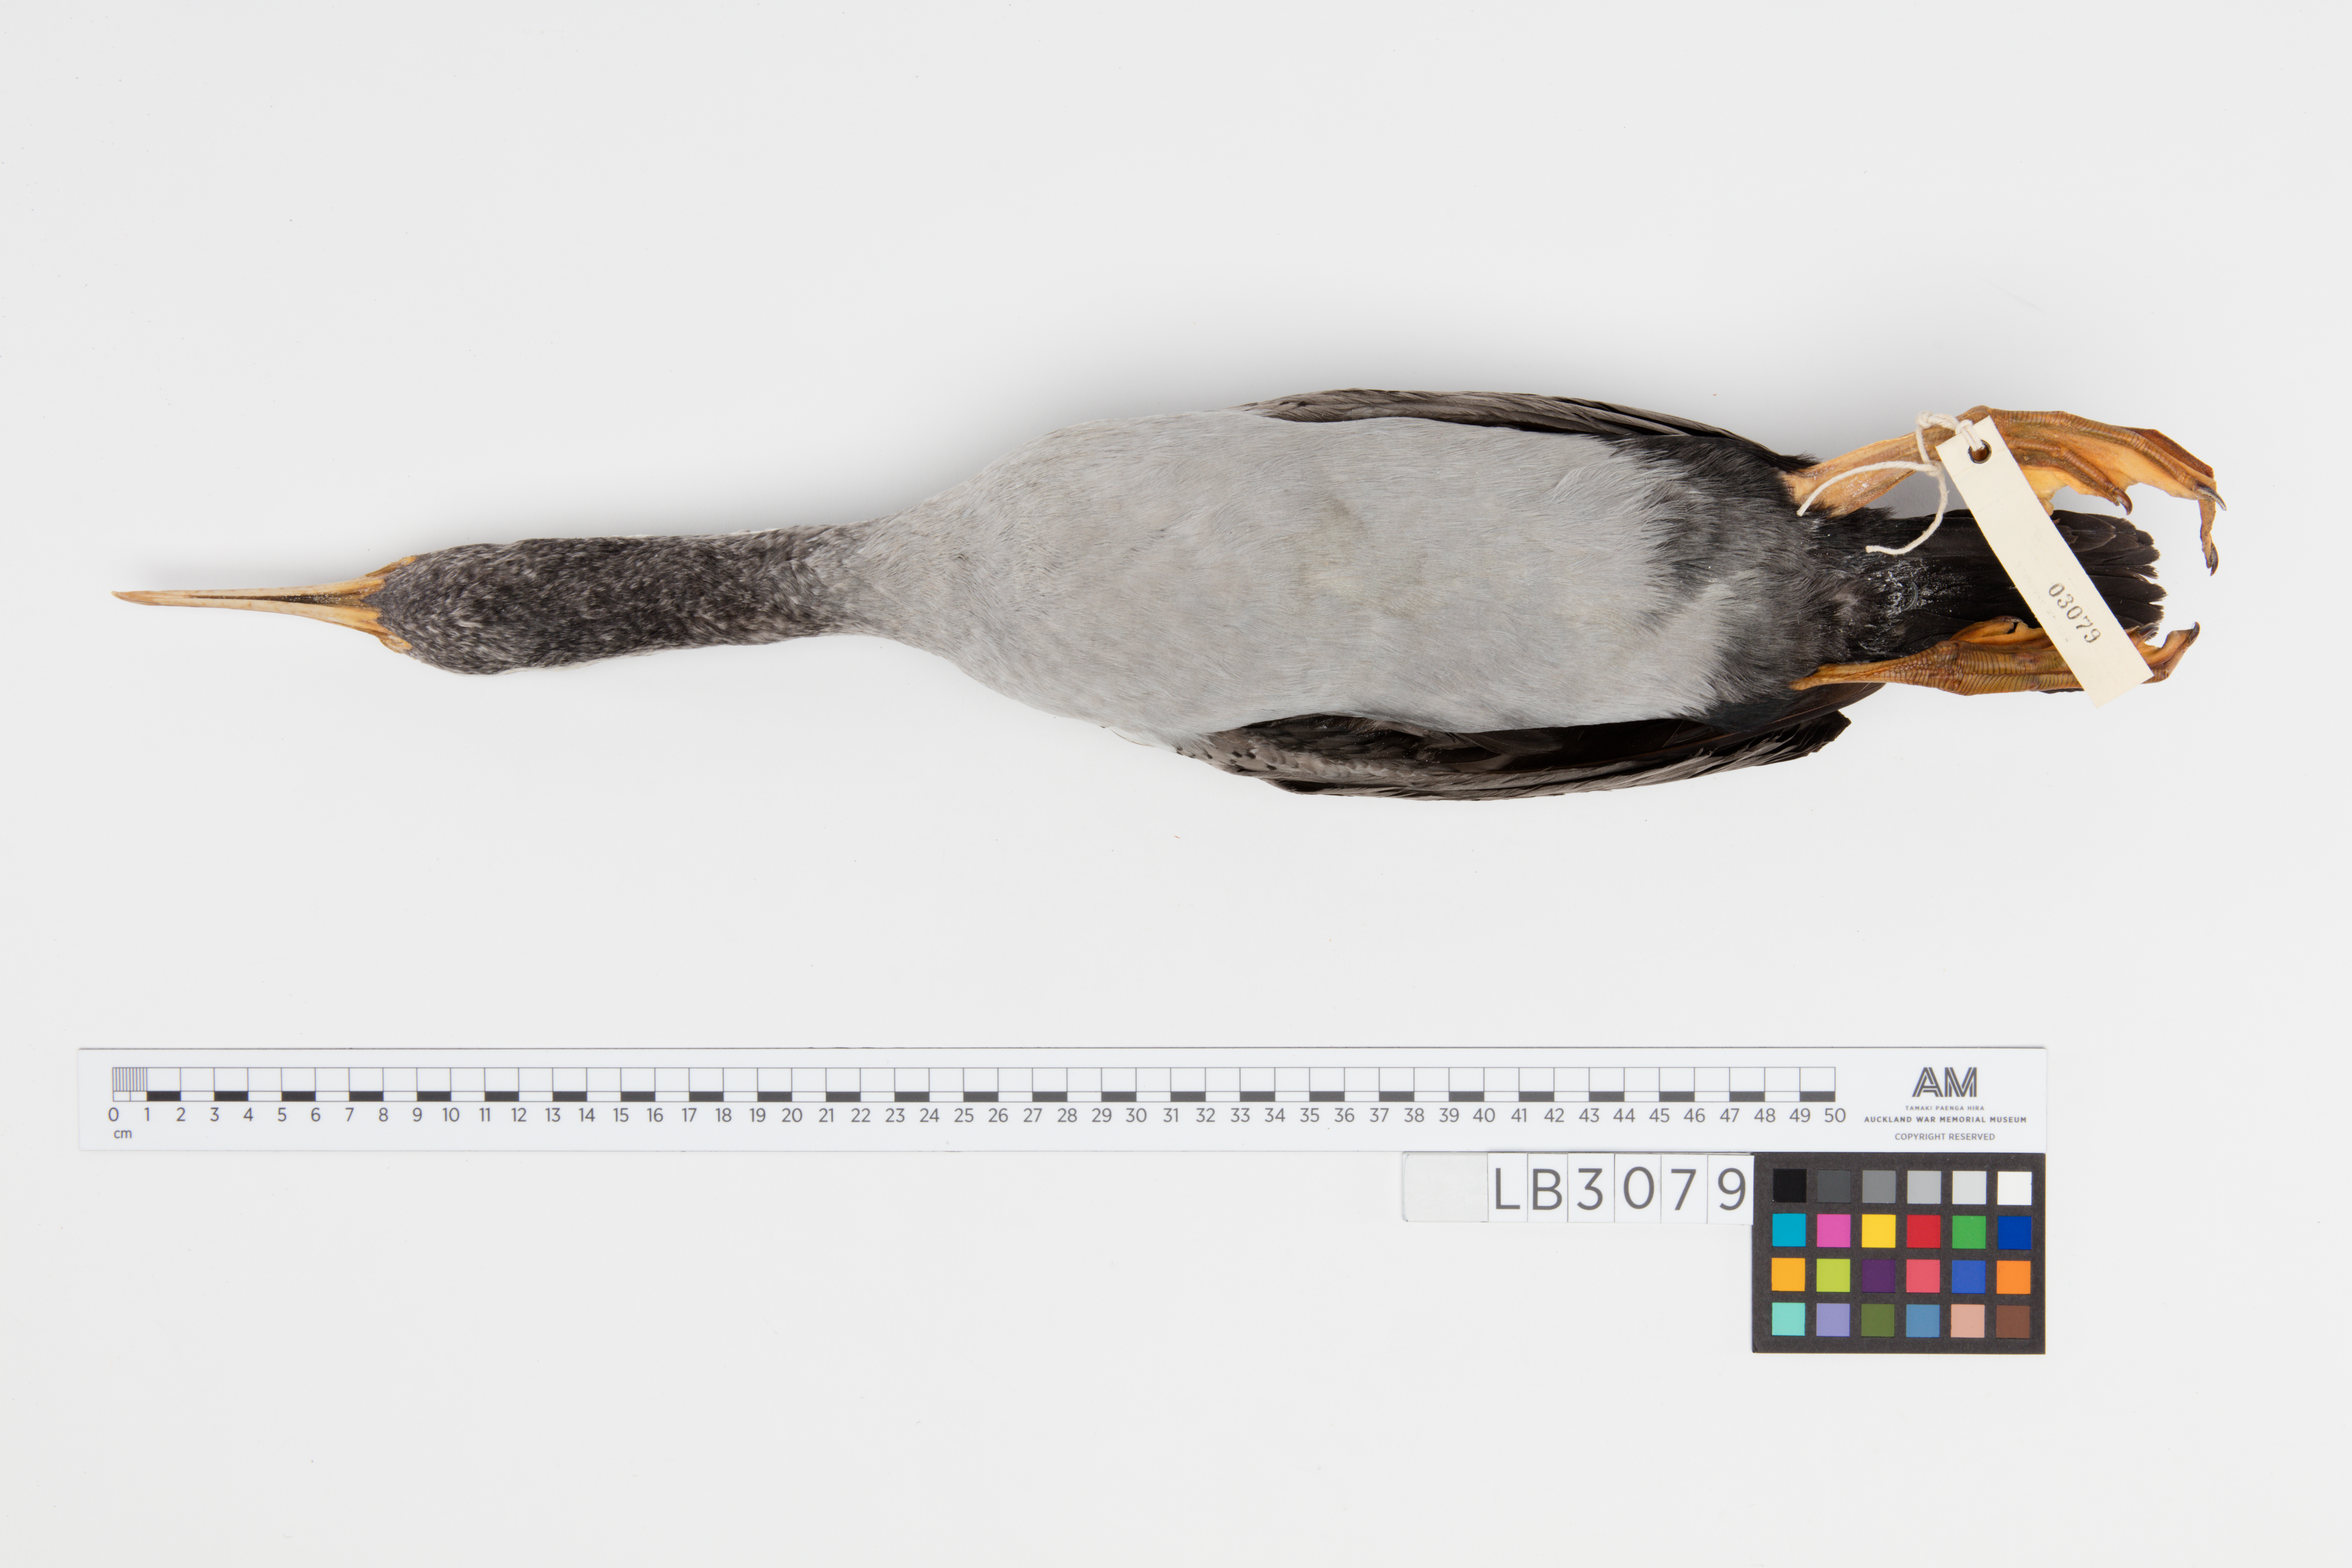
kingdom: Animalia
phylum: Chordata
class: Aves
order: Suliformes
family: Phalacrocoracidae
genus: Phalacrocorax
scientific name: Phalacrocorax punctatus
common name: Spotted shag
